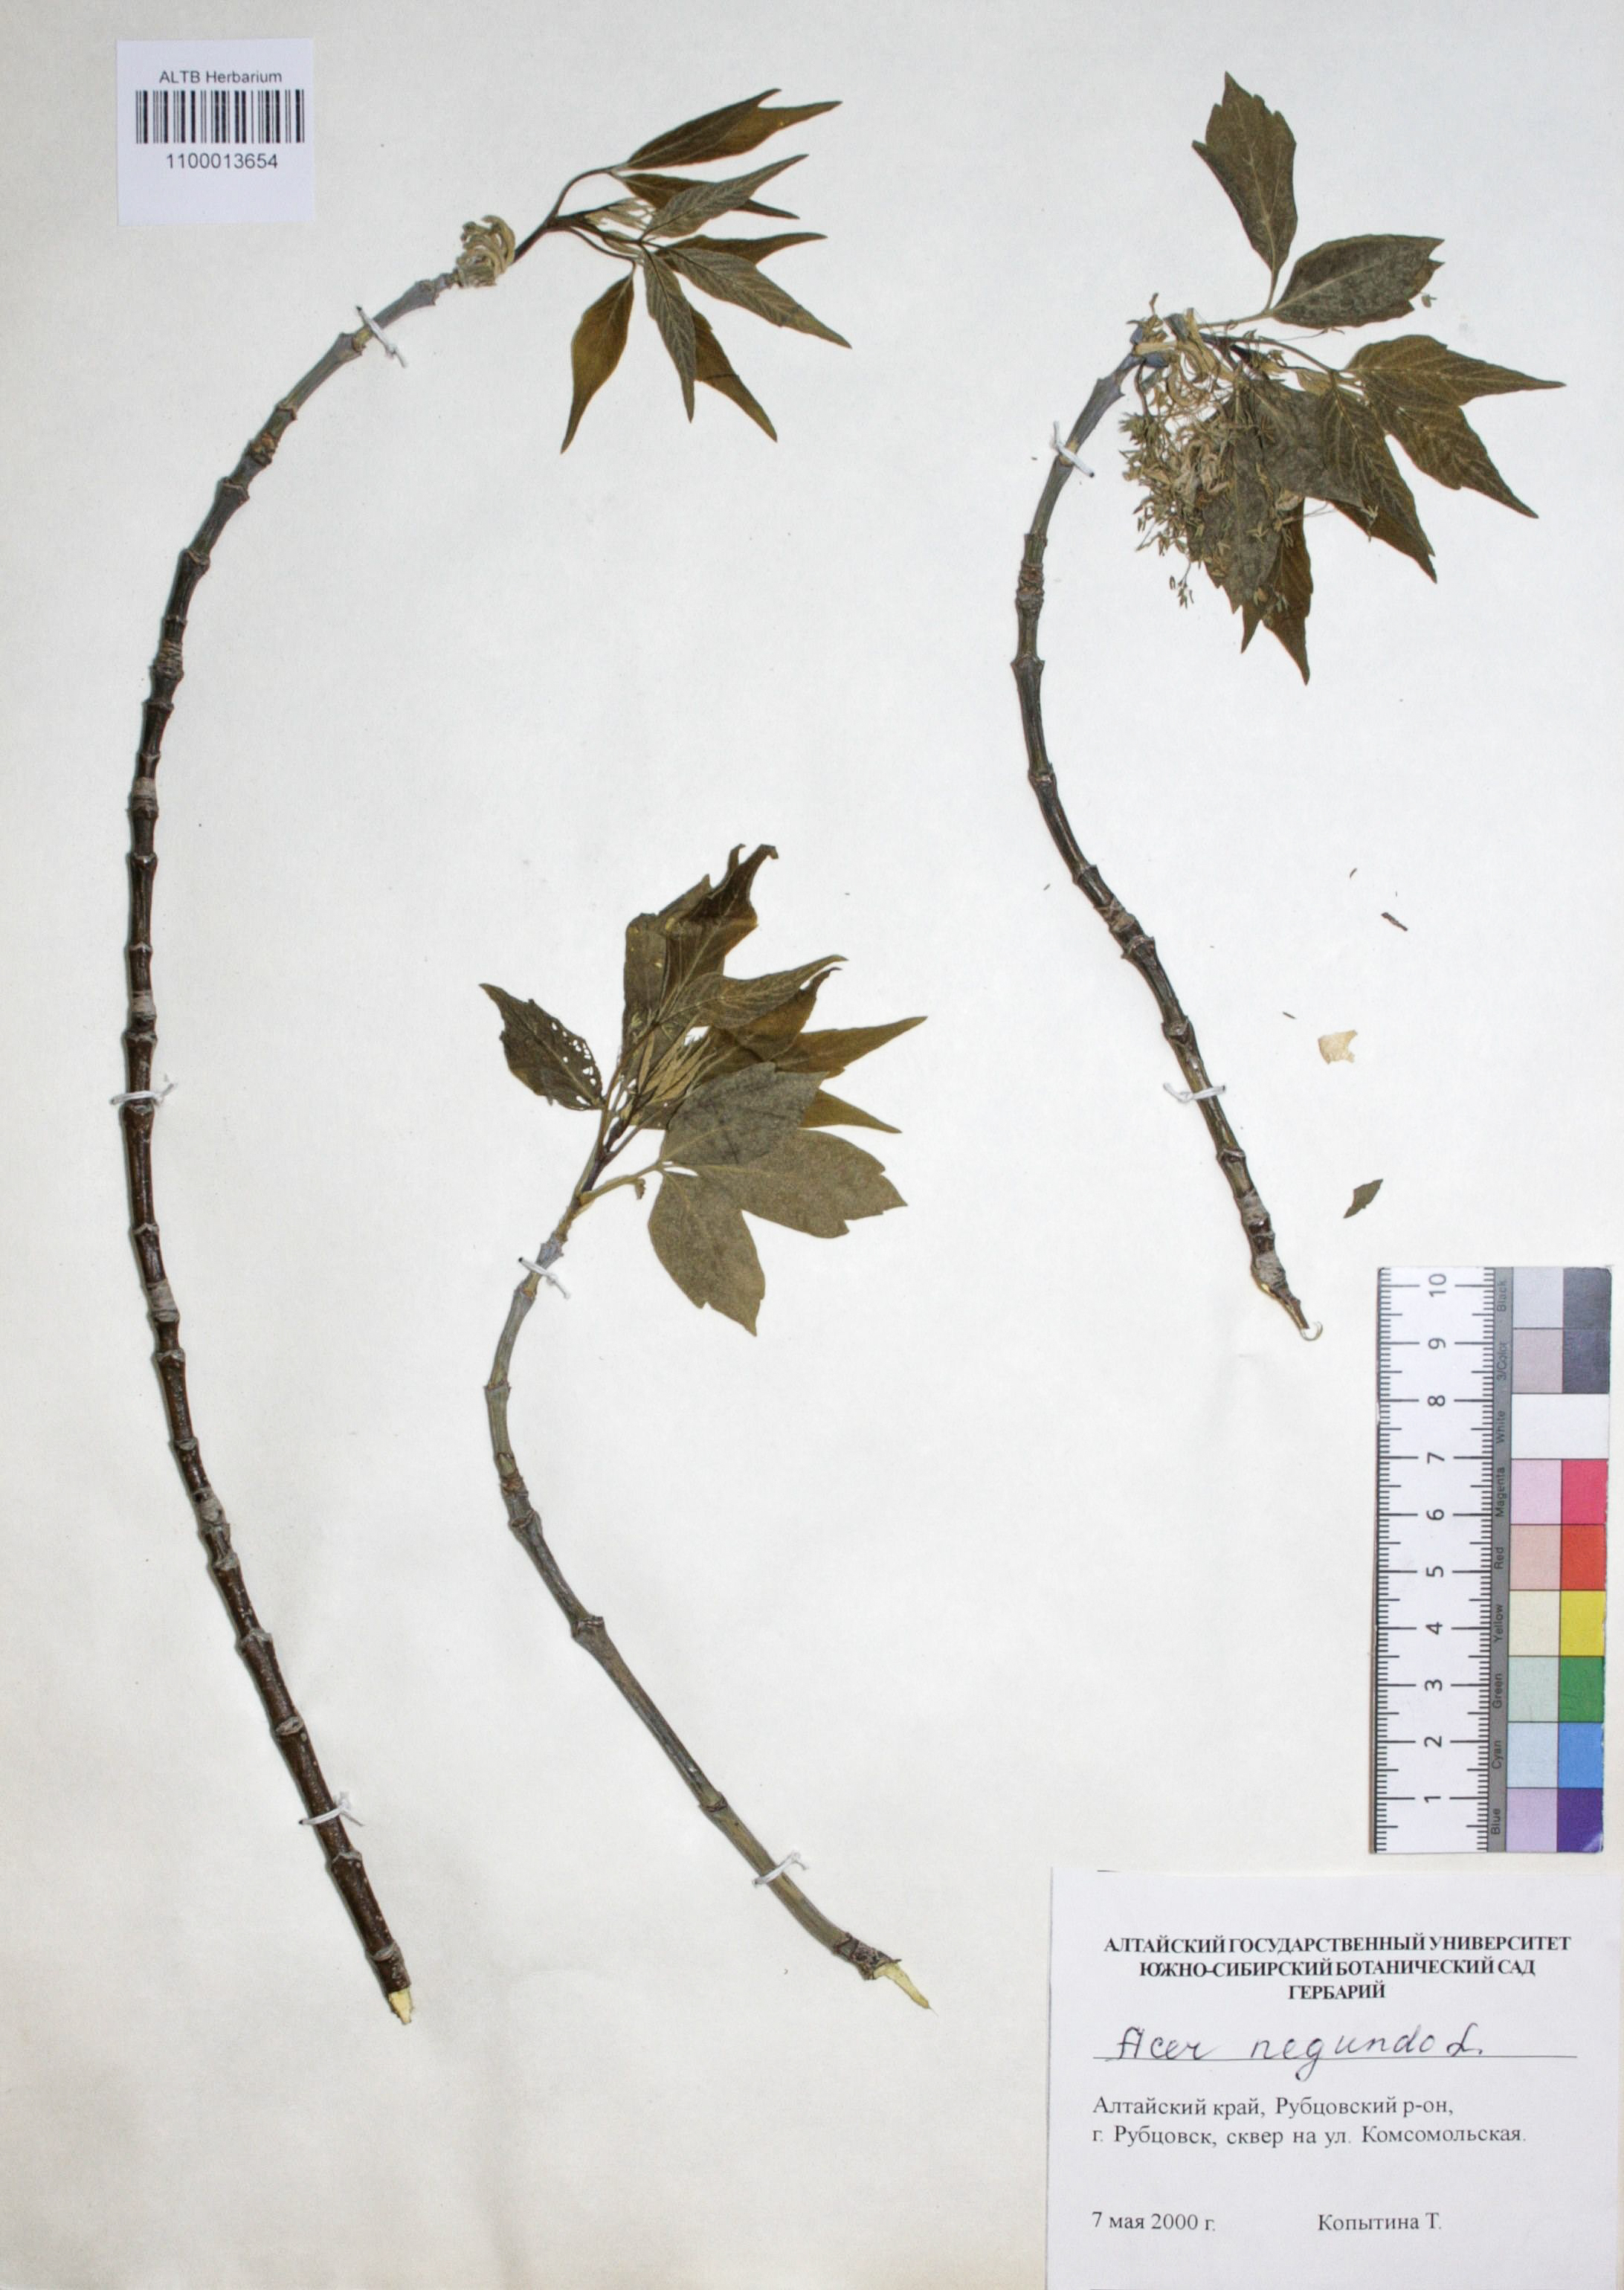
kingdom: Plantae
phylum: Tracheophyta
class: Magnoliopsida
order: Sapindales
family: Sapindaceae
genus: Acer
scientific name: Acer negundo
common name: Ashleaf maple
